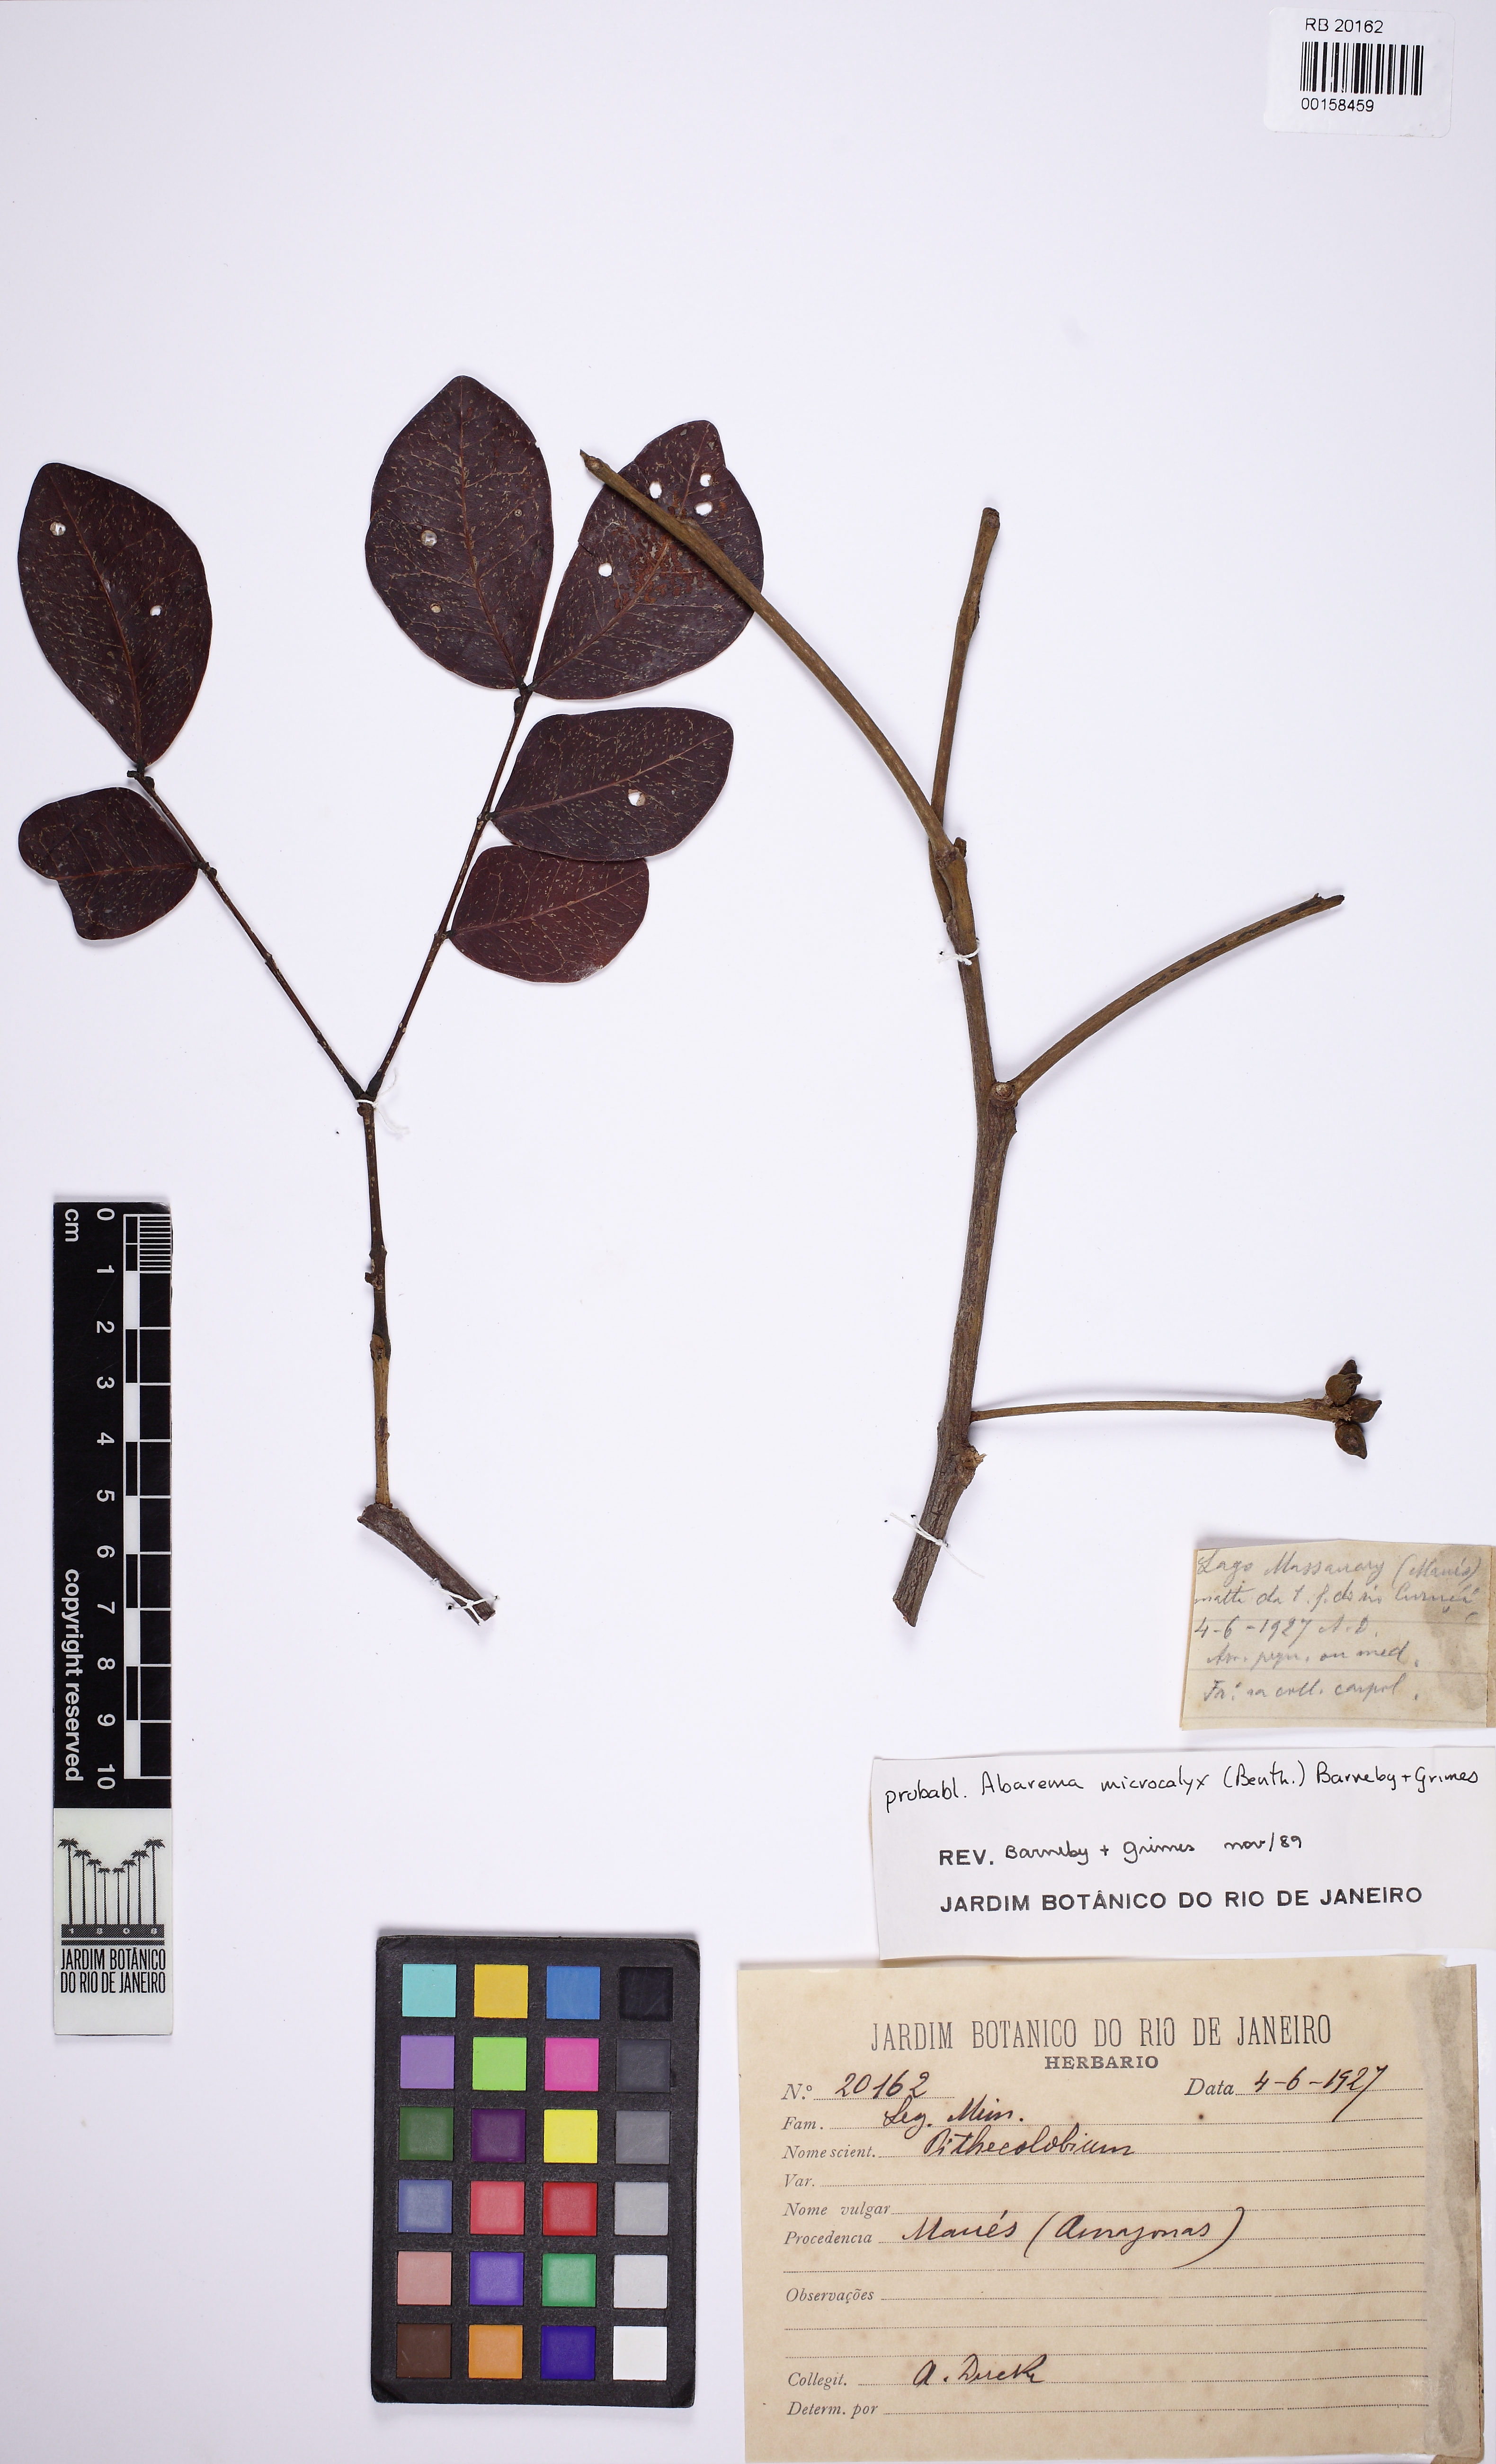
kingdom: Plantae
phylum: Tracheophyta
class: Magnoliopsida
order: Fabales
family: Fabaceae
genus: Jupunba
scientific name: Jupunba microcalyx
